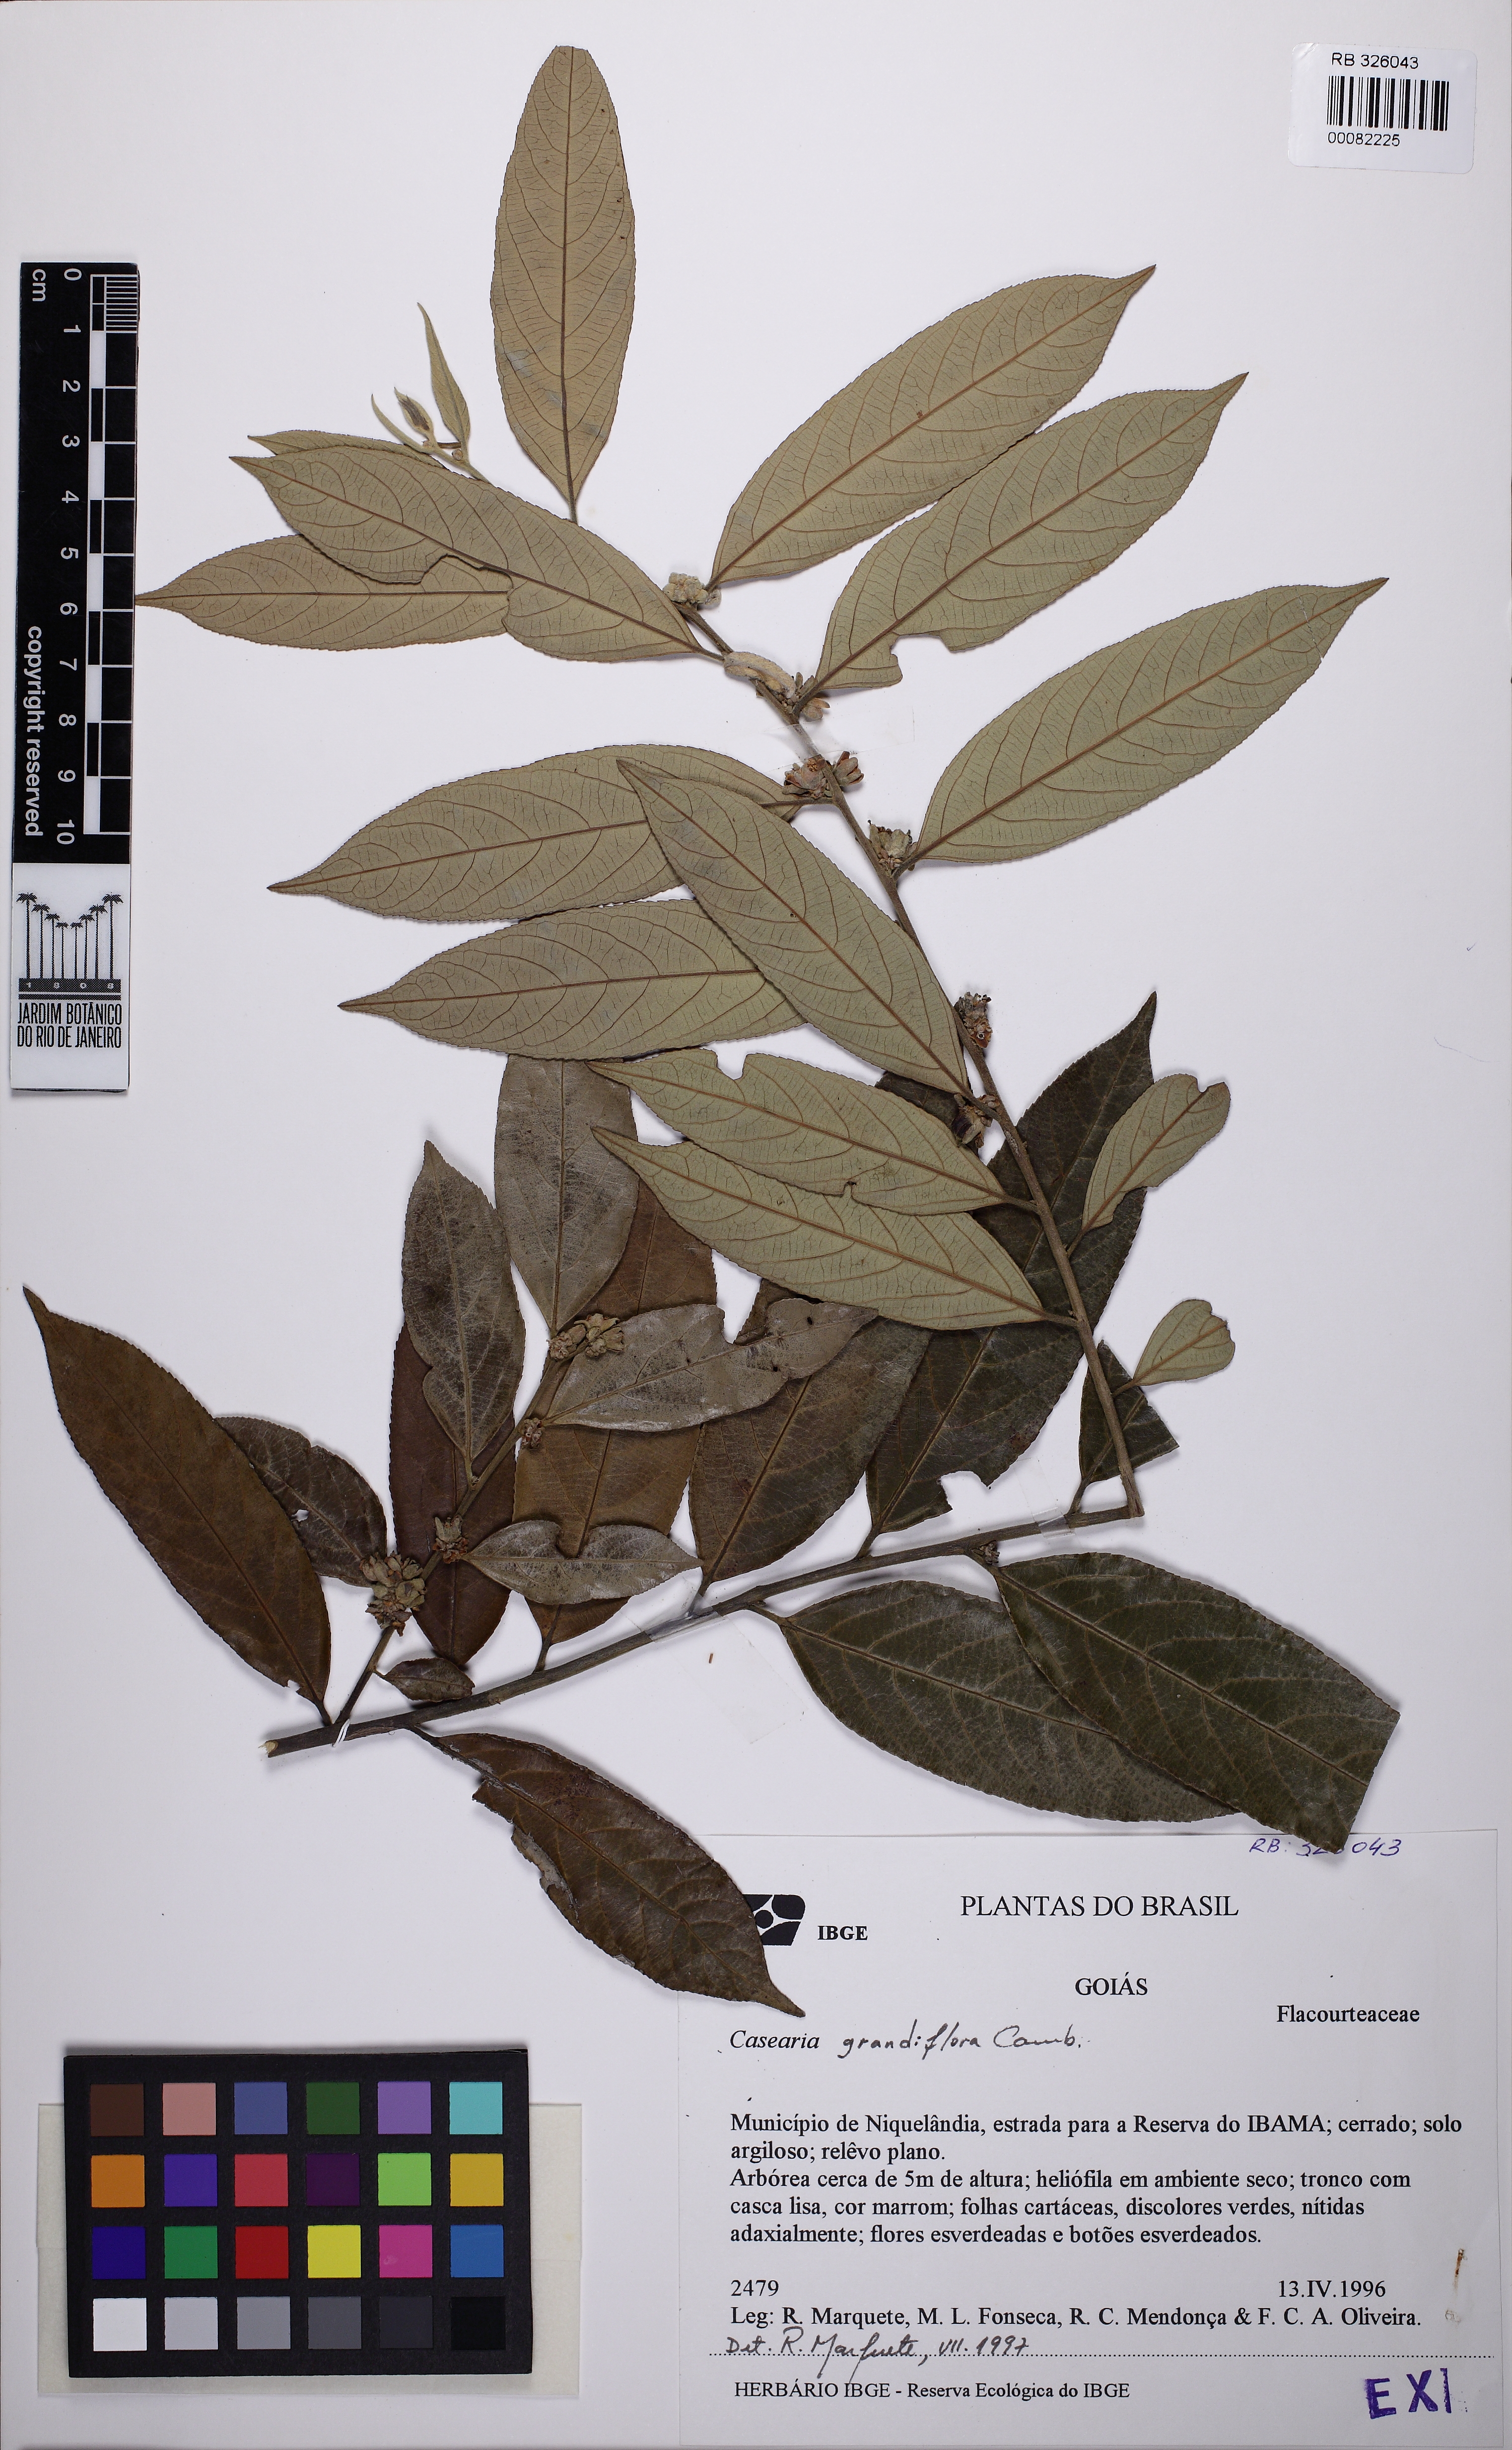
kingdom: Plantae
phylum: Tracheophyta
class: Magnoliopsida
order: Malpighiales
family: Salicaceae
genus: Casearia
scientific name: Casearia grandiflora
